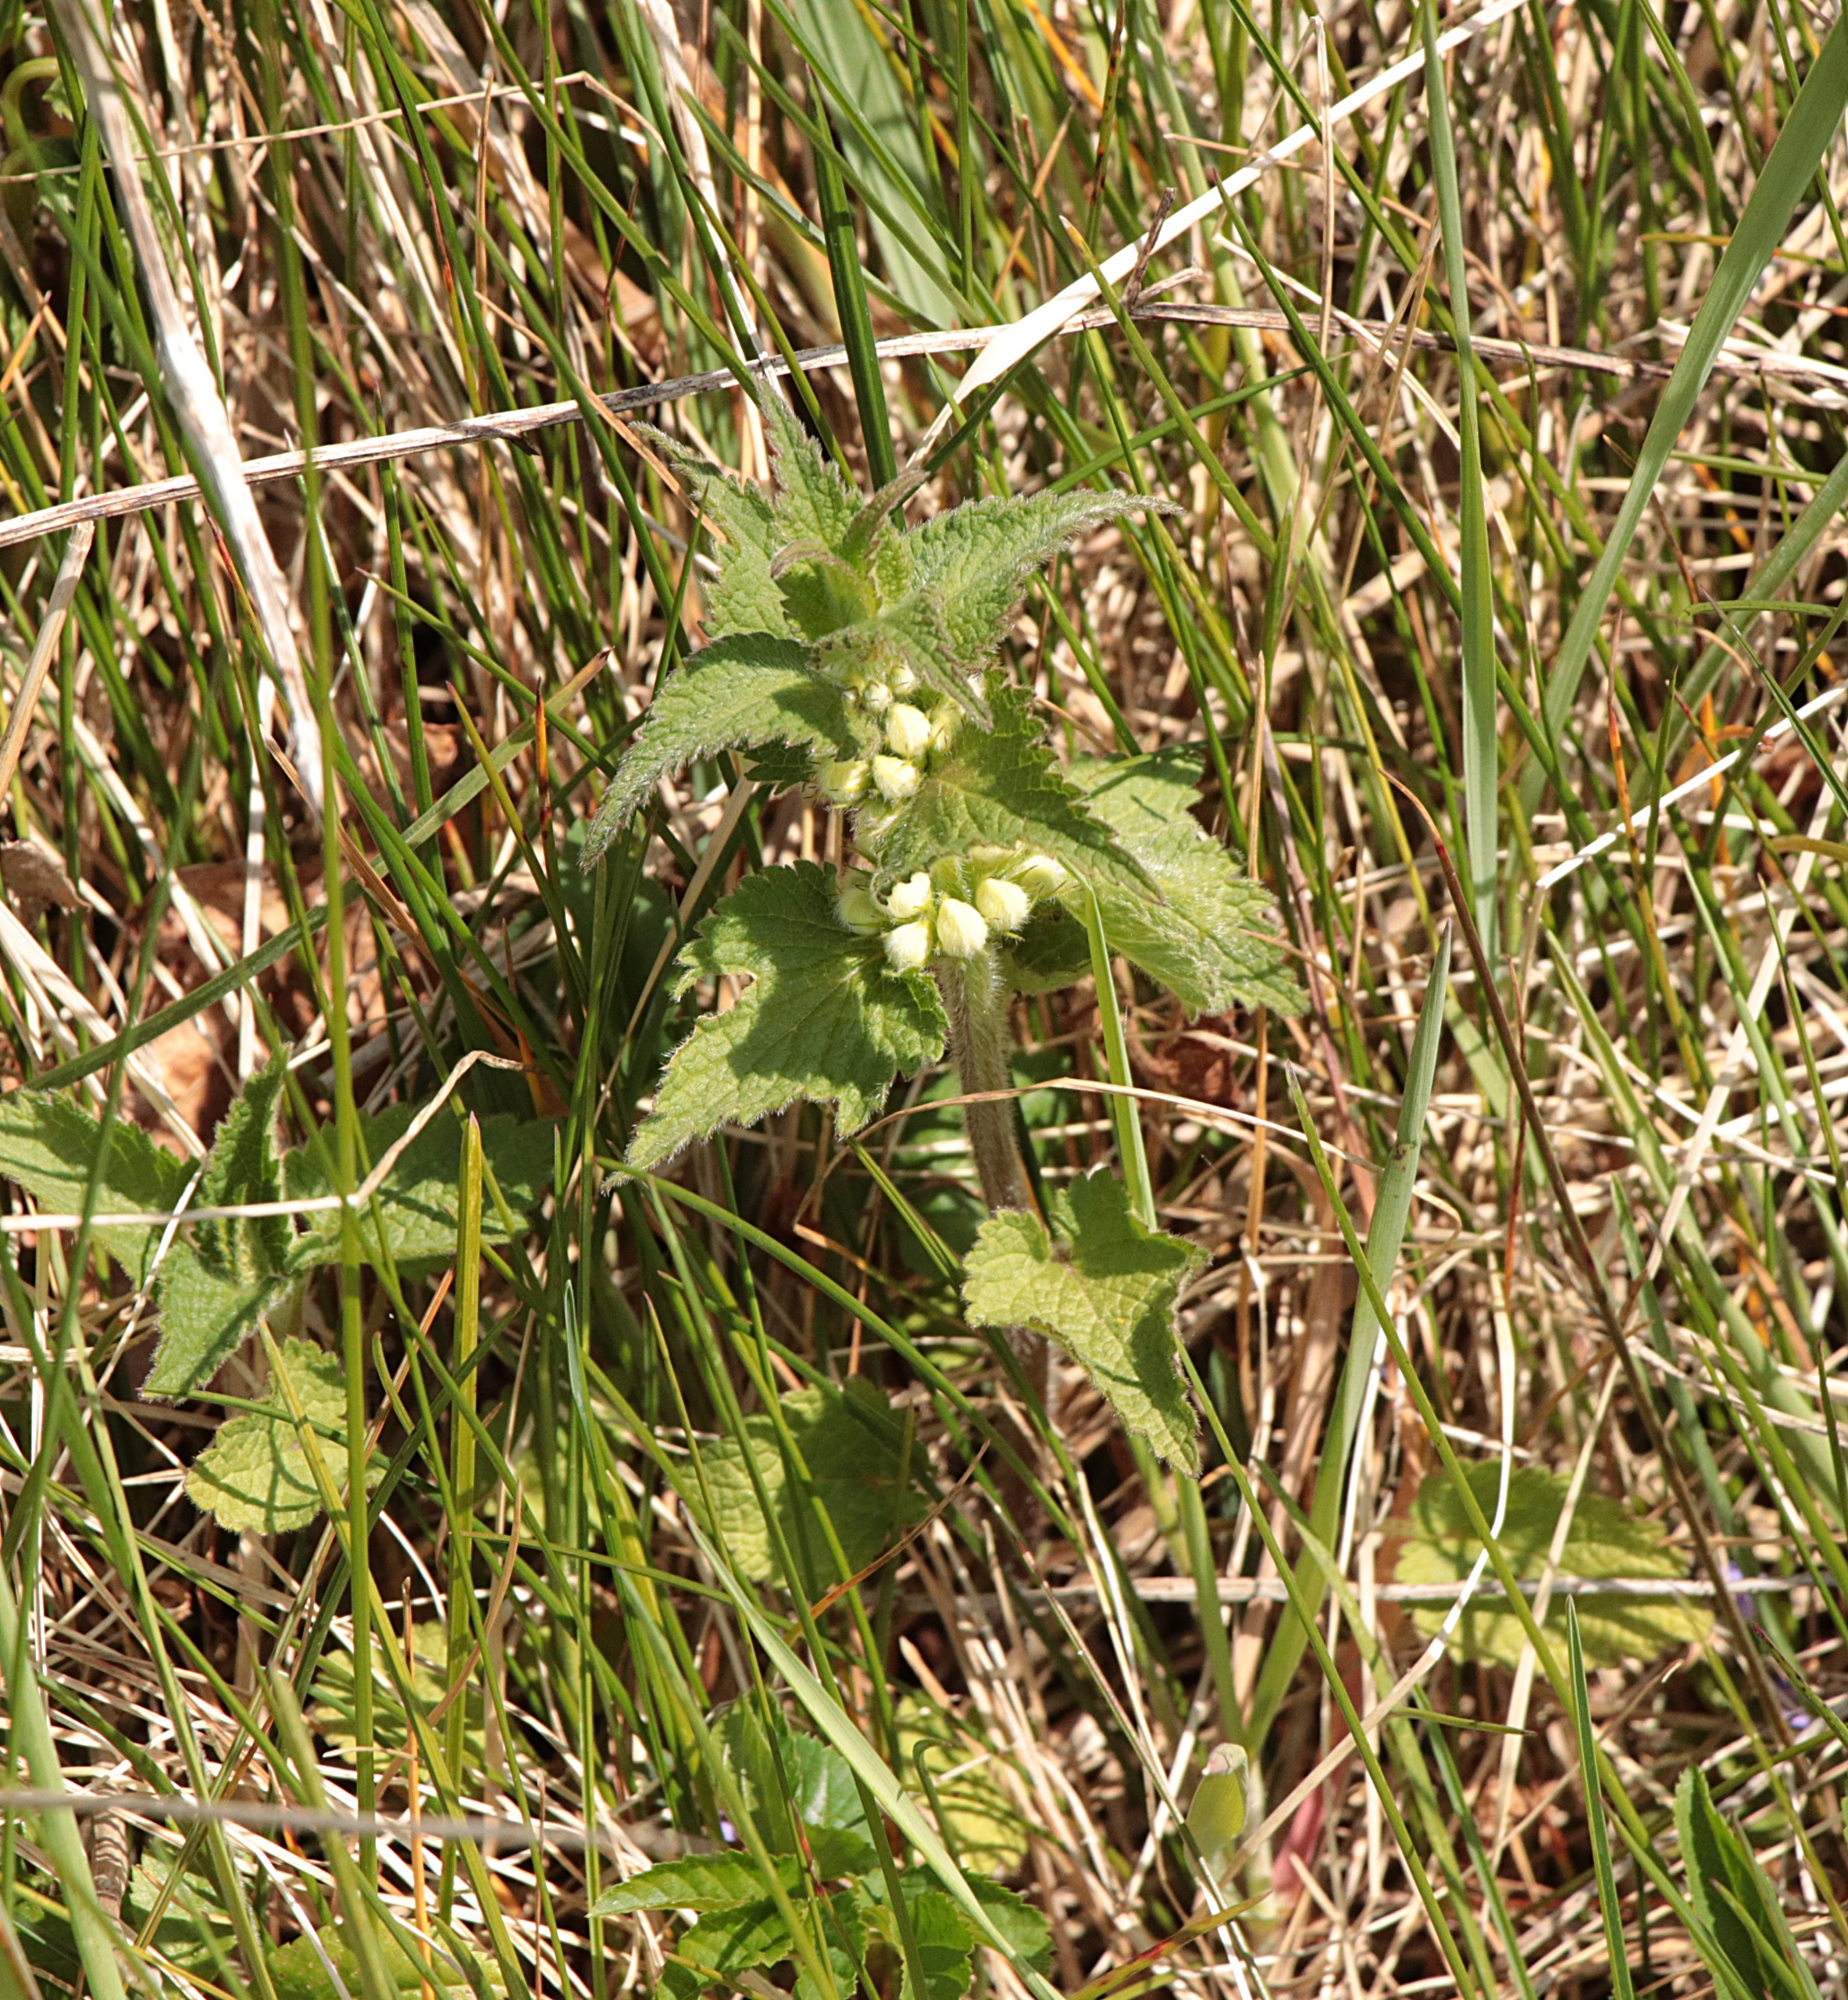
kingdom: Plantae
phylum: Tracheophyta
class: Magnoliopsida
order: Lamiales
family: Lamiaceae
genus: Lamium
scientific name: Lamium album
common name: Døvnælde
